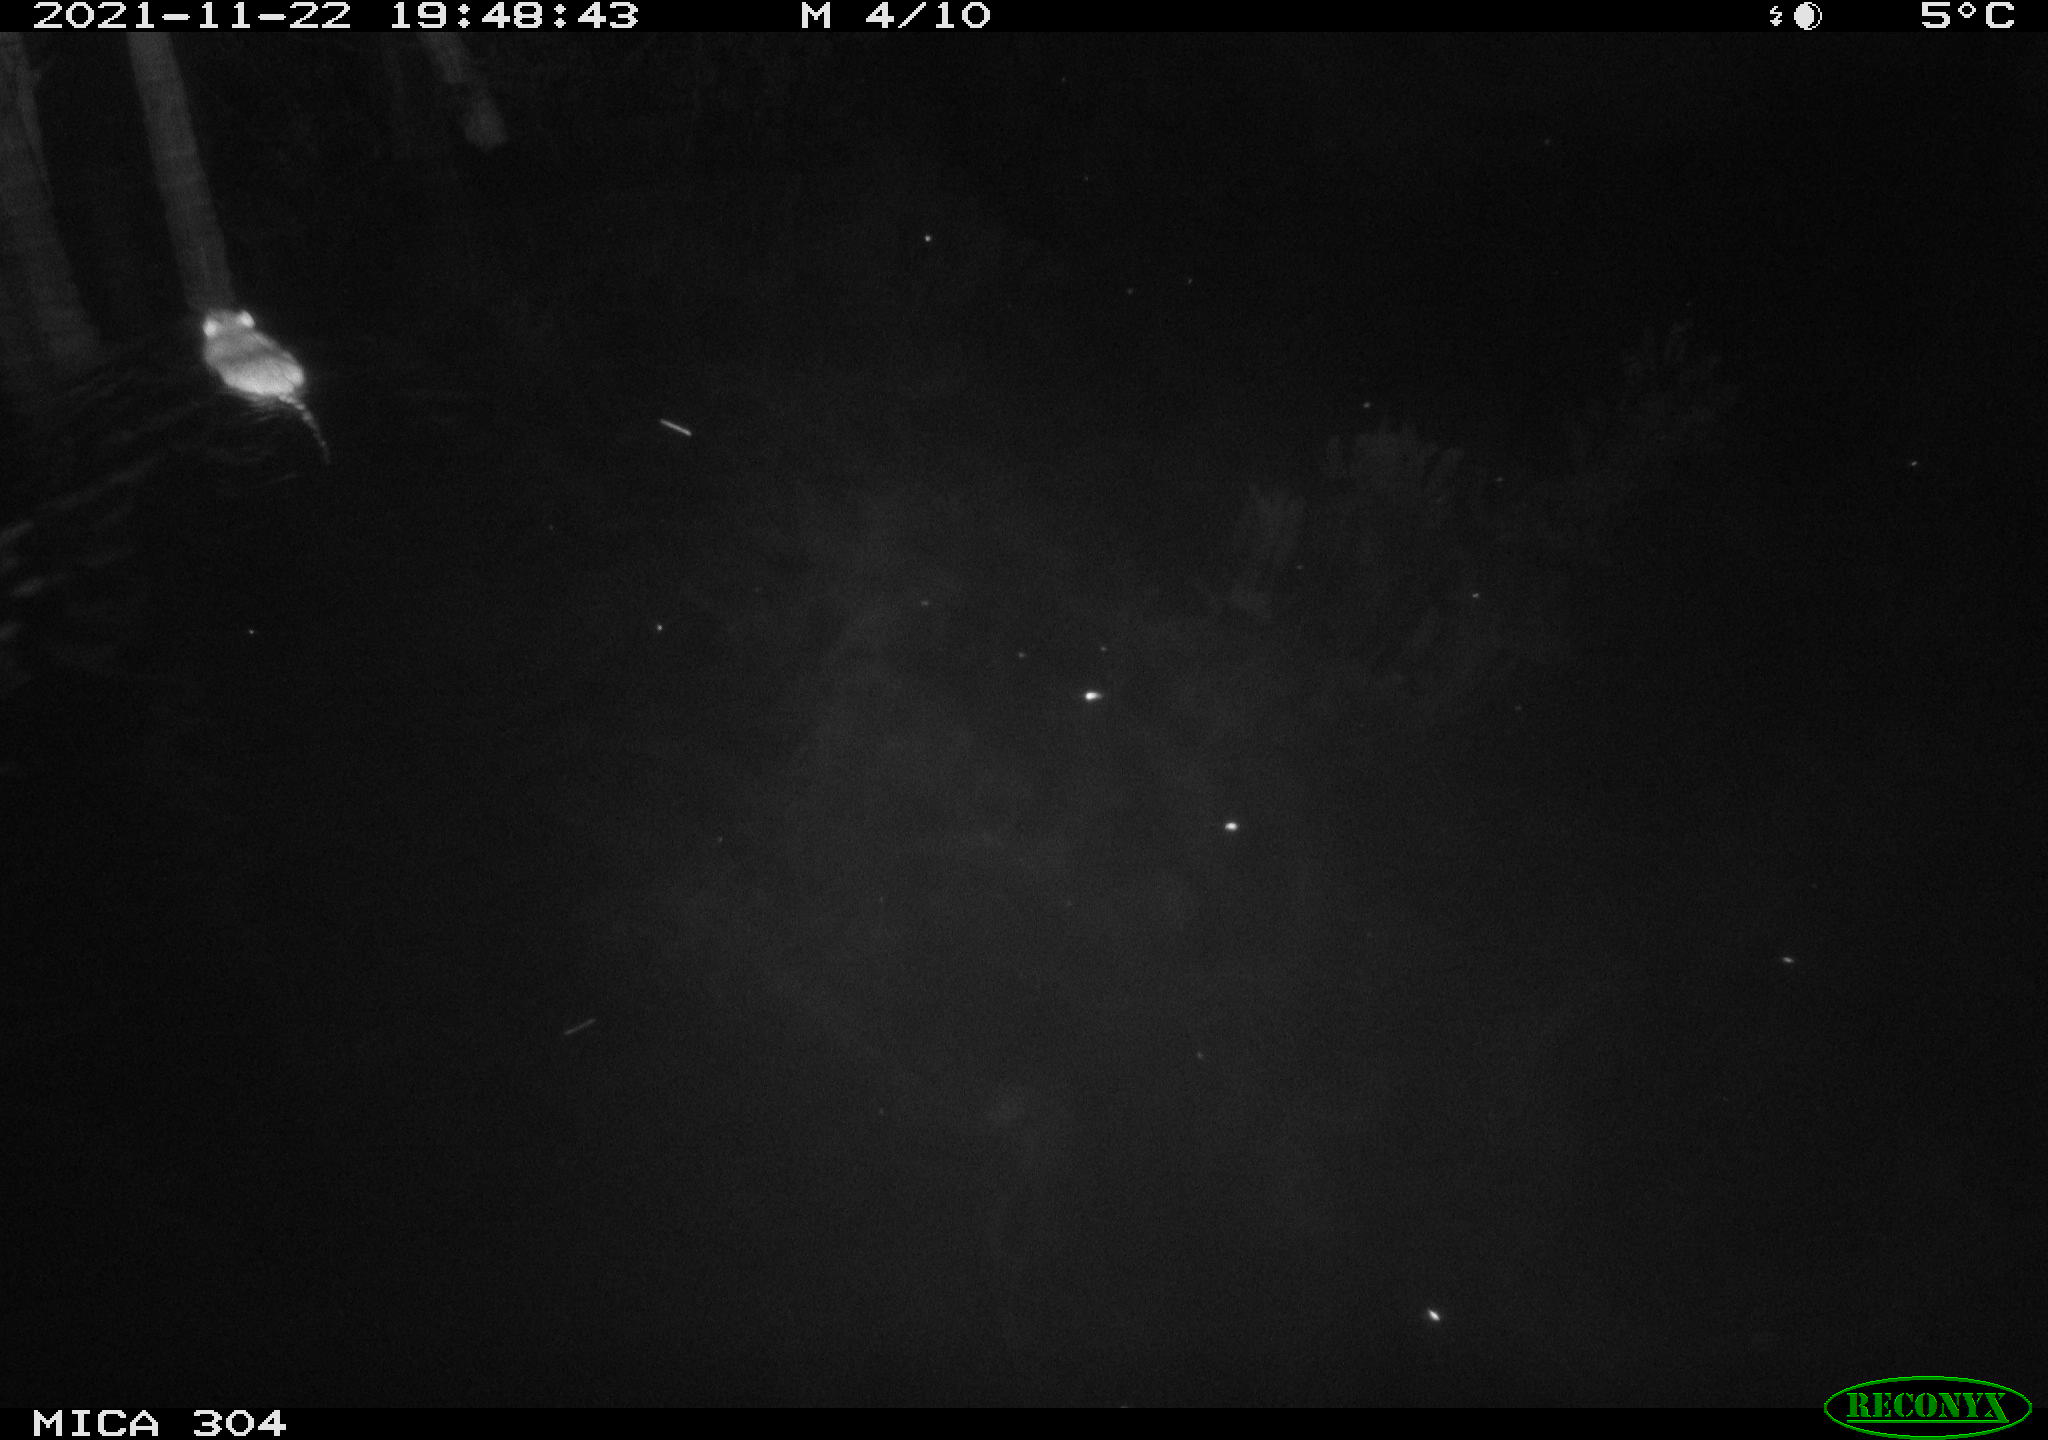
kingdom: Animalia
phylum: Chordata
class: Mammalia
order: Rodentia
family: Muridae
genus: Rattus
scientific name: Rattus norvegicus
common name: Brown rat
